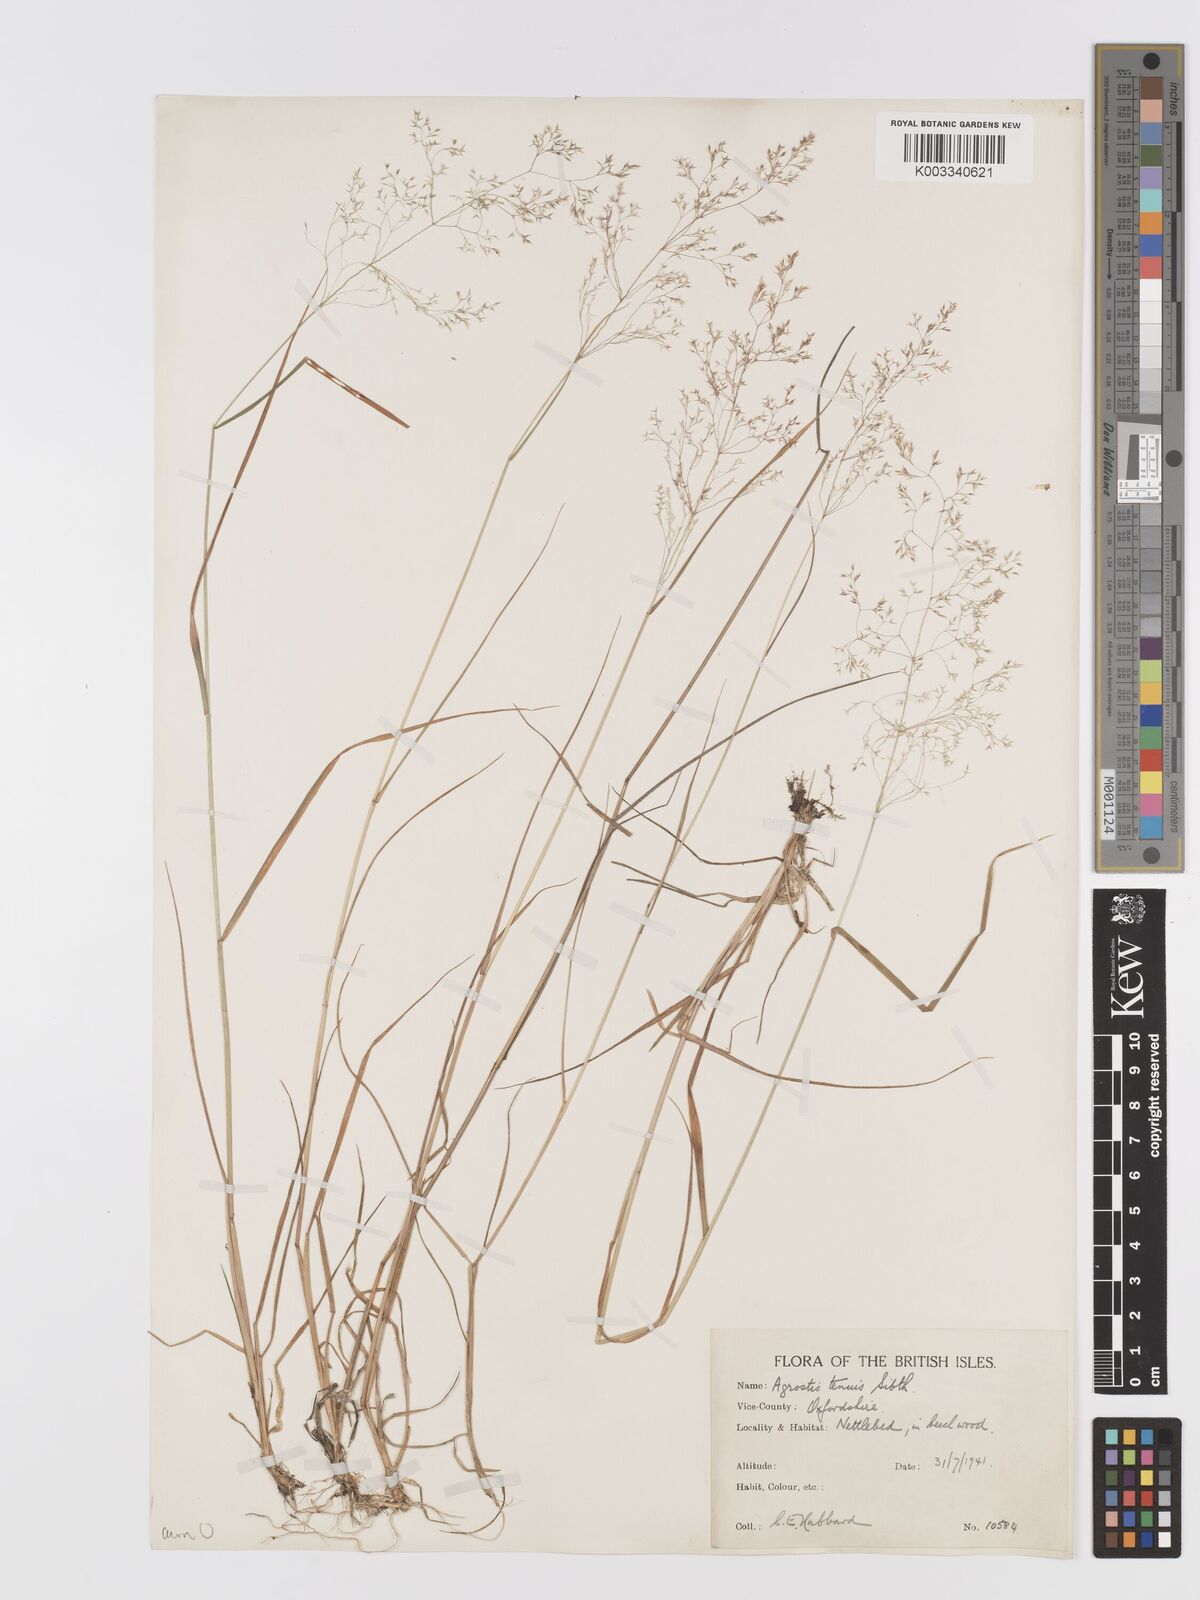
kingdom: Plantae
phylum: Tracheophyta
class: Liliopsida
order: Poales
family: Poaceae
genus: Agrostis
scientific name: Agrostis capillaris
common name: Colonial bentgrass
